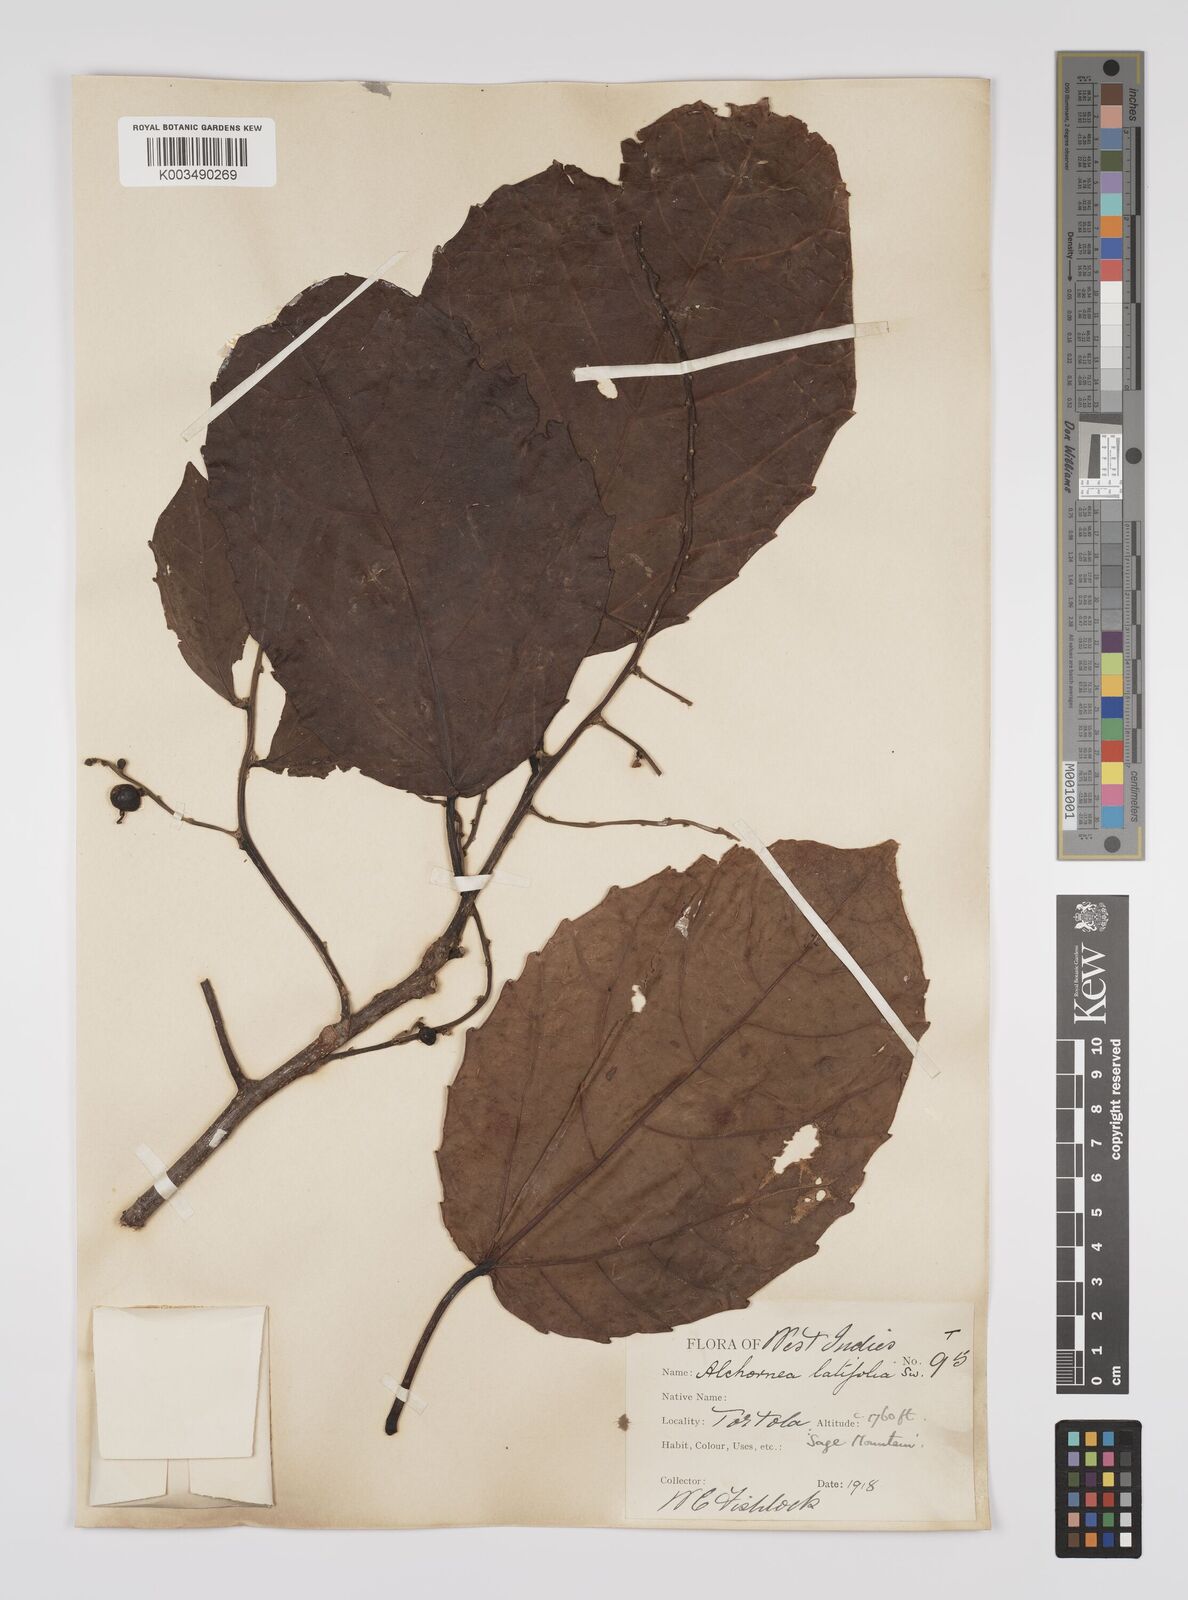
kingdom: Plantae
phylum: Tracheophyta
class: Magnoliopsida
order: Malpighiales
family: Euphorbiaceae
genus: Alchornea
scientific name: Alchornea latifolia
